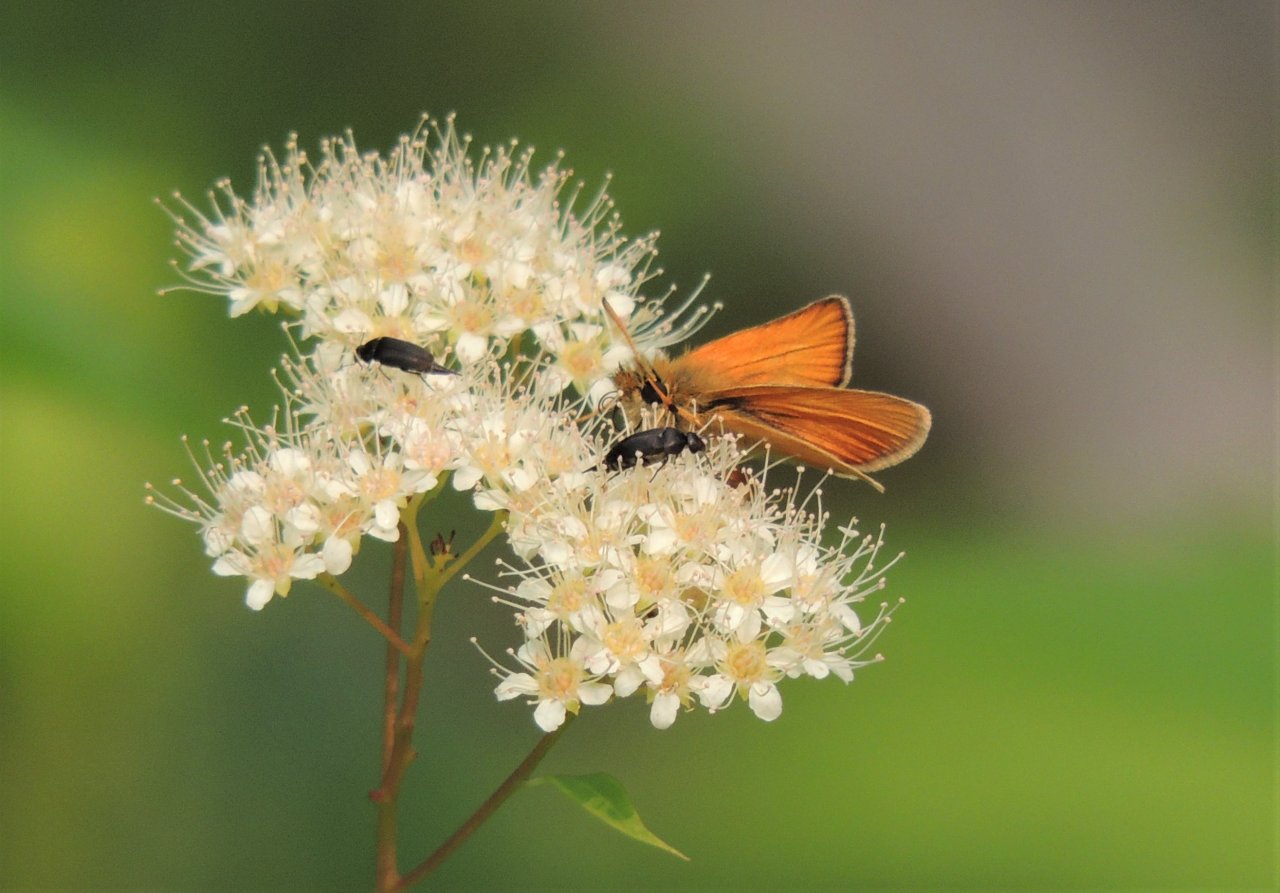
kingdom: Animalia
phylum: Arthropoda
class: Insecta
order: Lepidoptera
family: Hesperiidae
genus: Thymelicus
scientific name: Thymelicus lineola
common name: European Skipper
